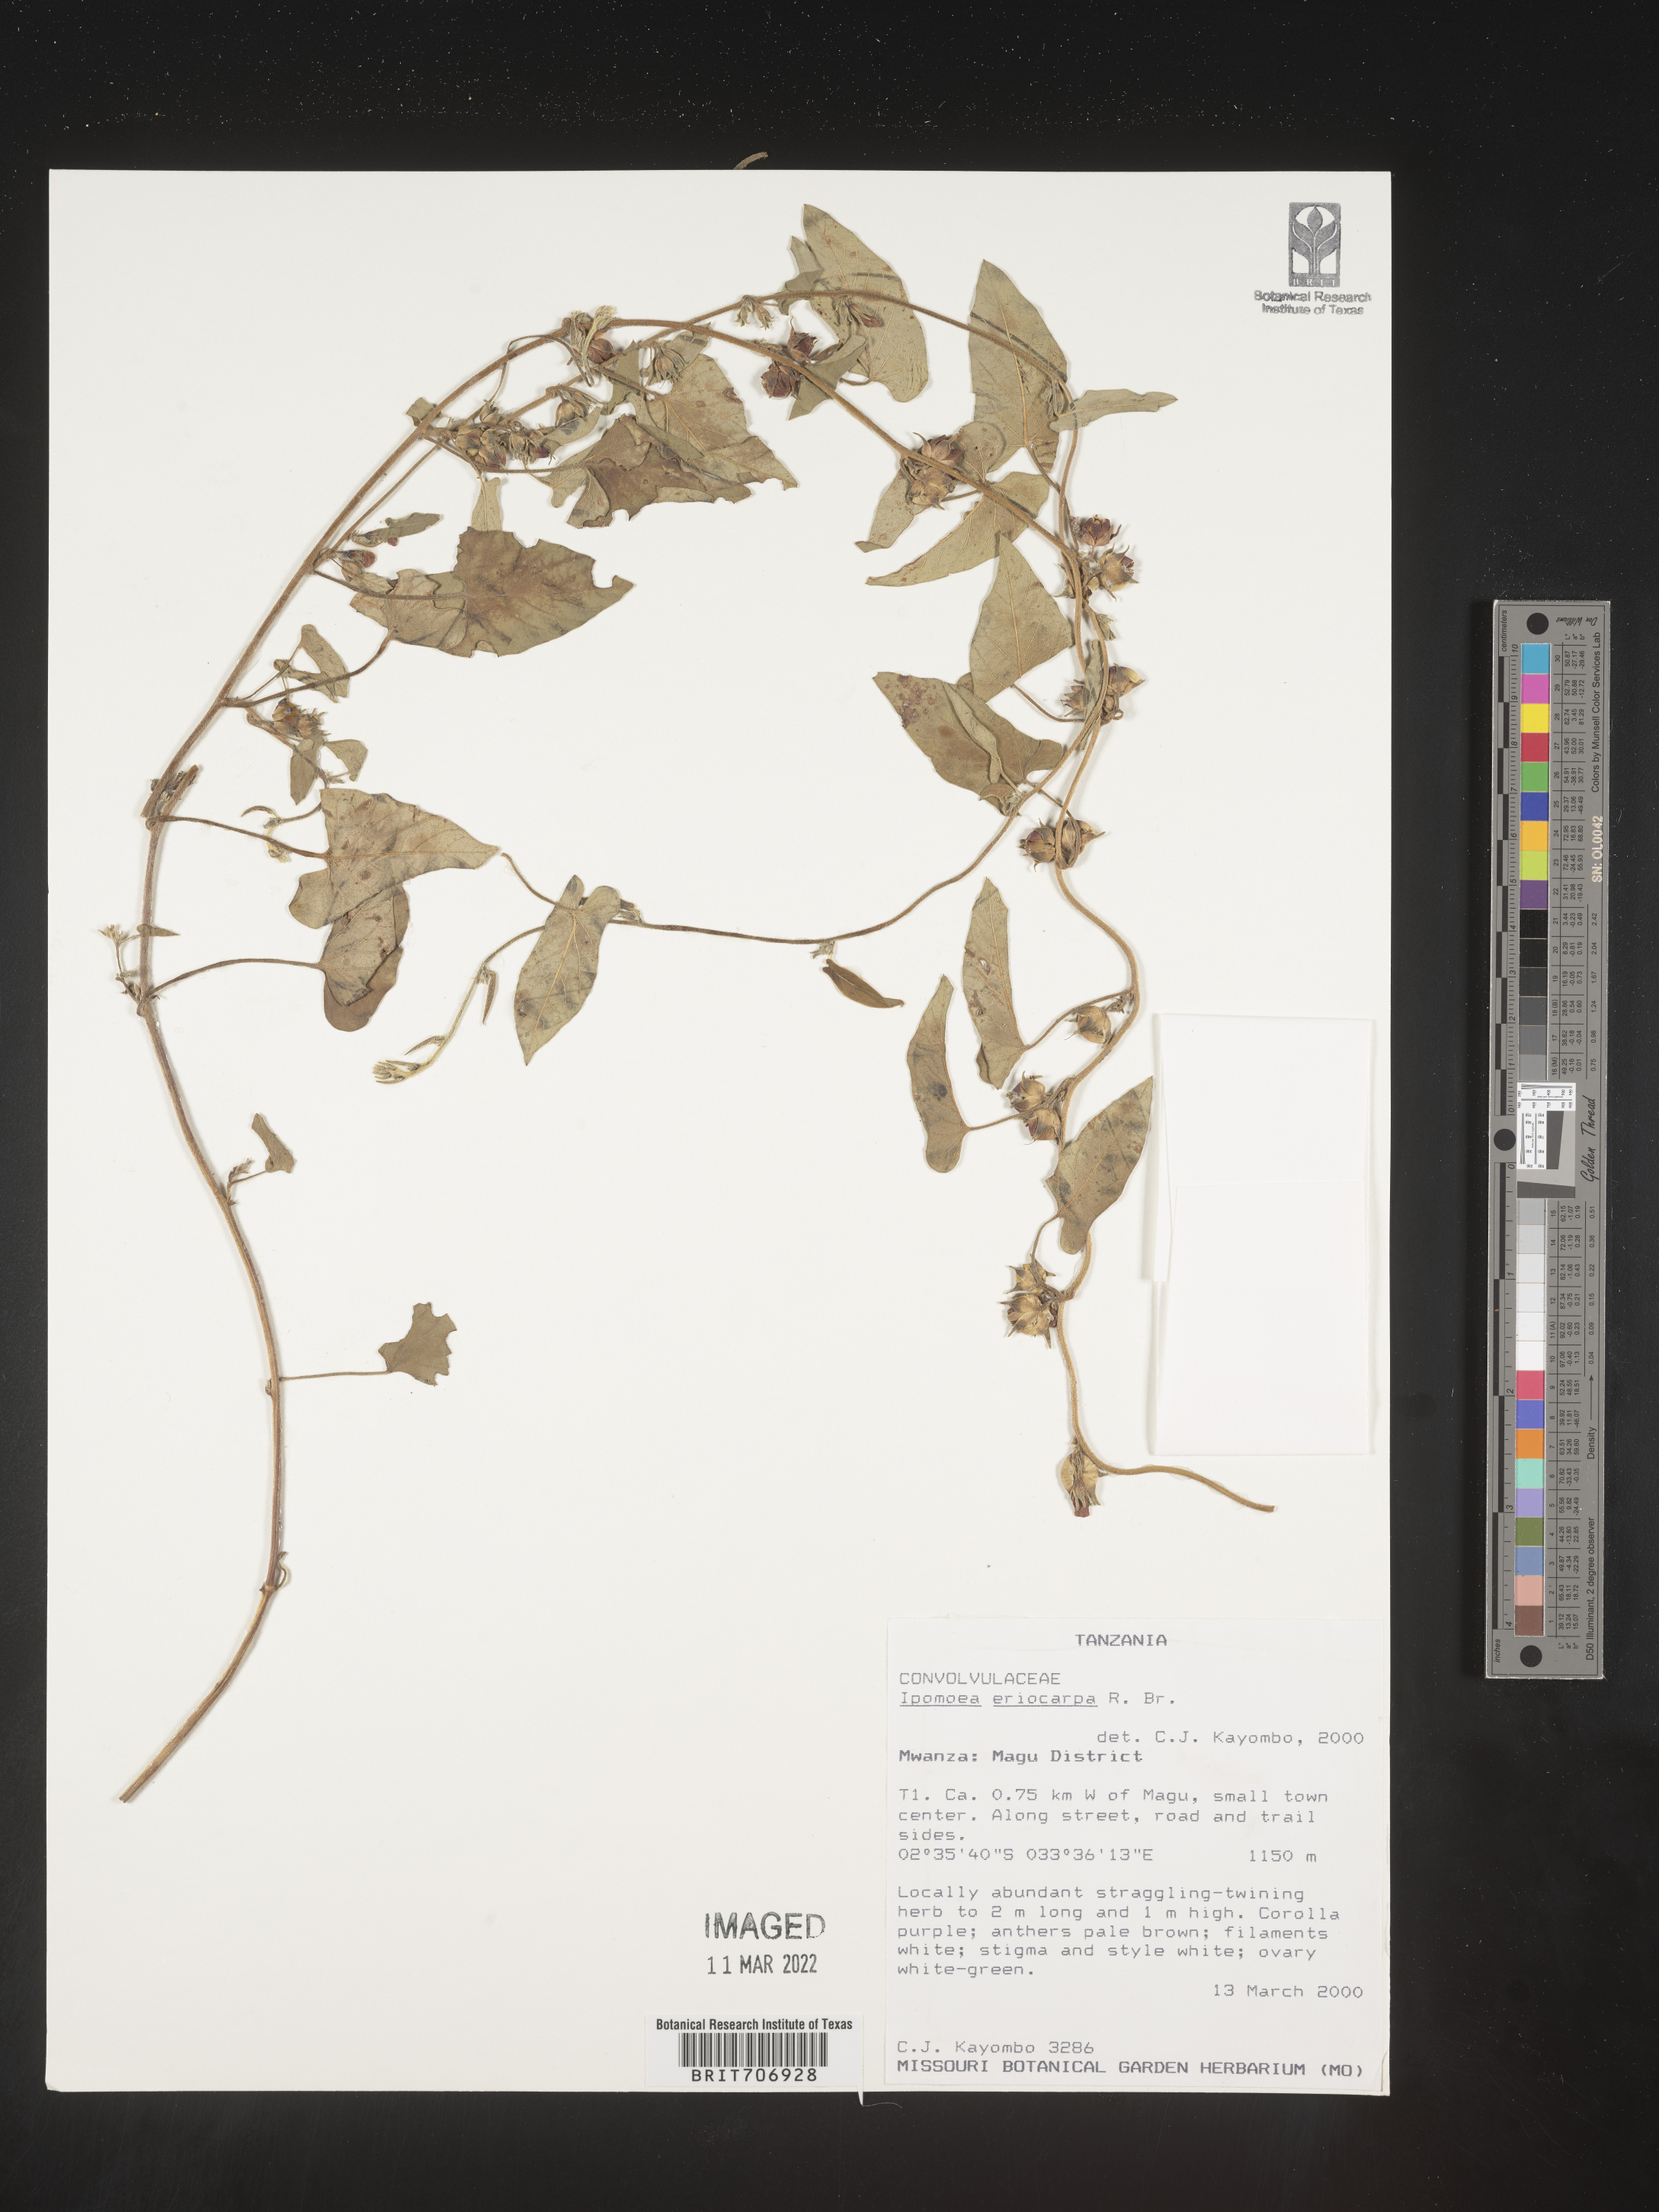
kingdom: Plantae
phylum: Tracheophyta
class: Magnoliopsida
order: Solanales
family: Convolvulaceae
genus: Ipomoea
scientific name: Ipomoea
